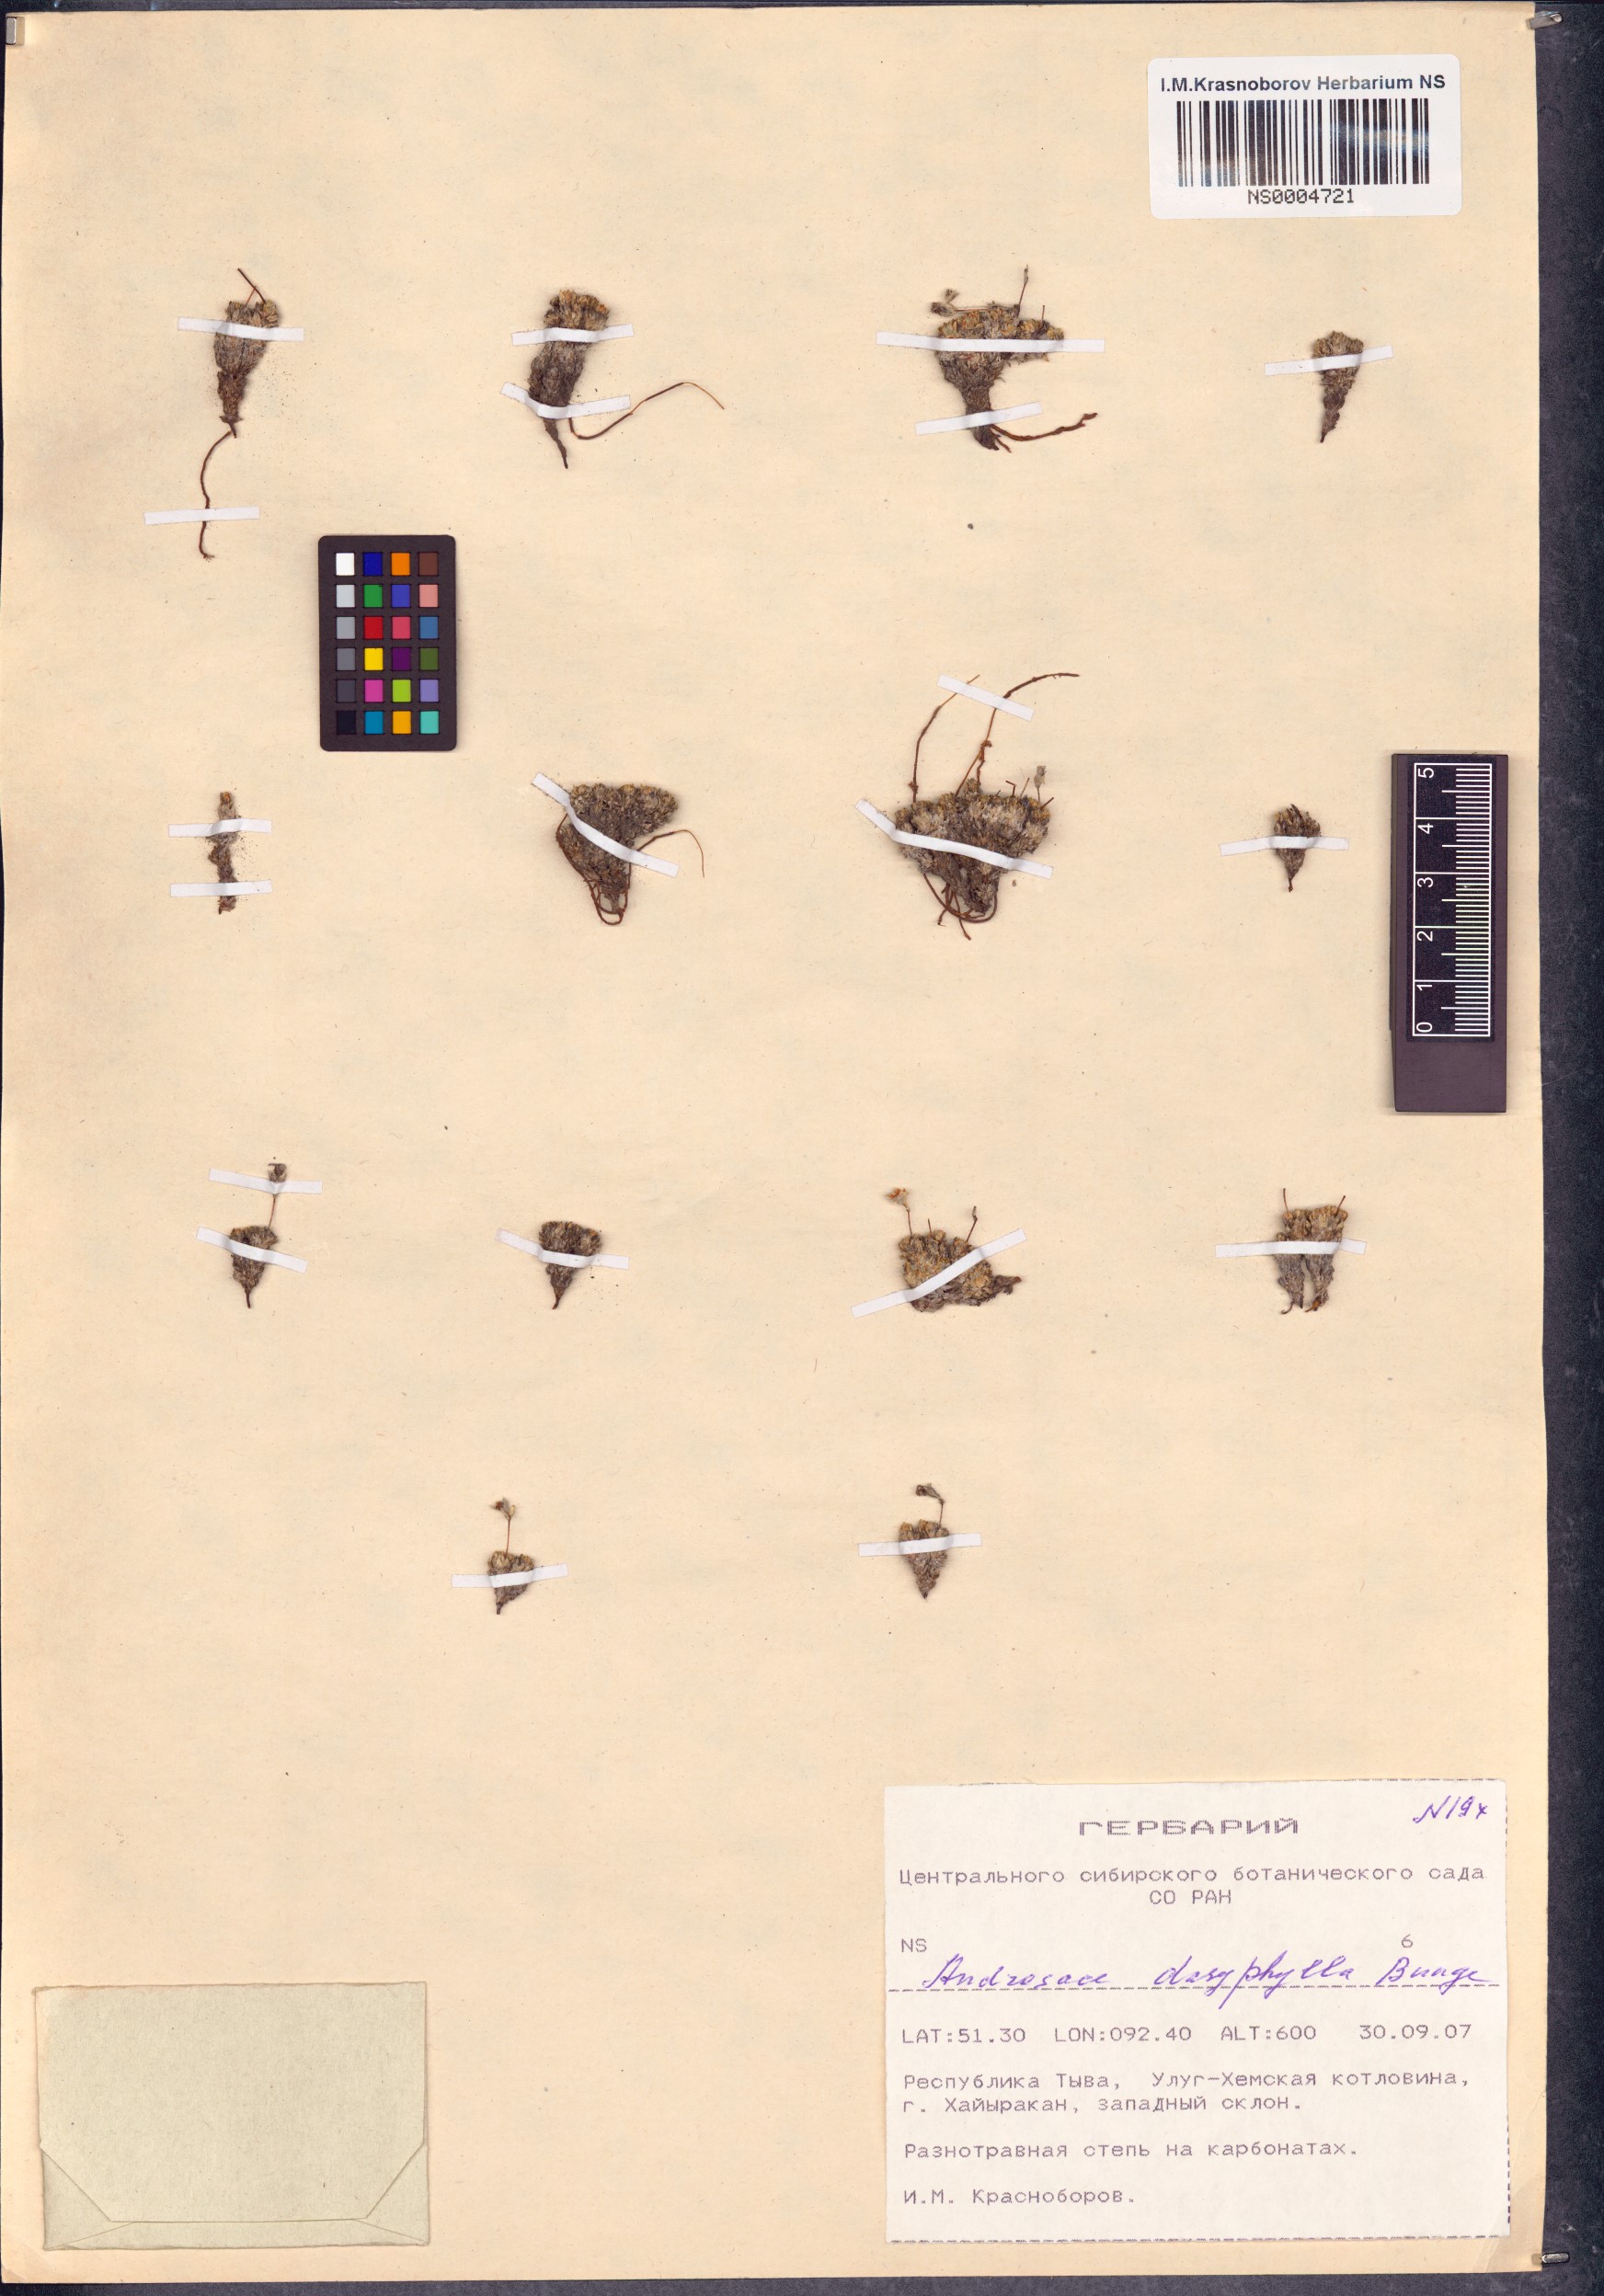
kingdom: Plantae
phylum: Tracheophyta
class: Magnoliopsida
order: Ericales
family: Primulaceae
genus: Androsace
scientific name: Androsace dasyphylla
